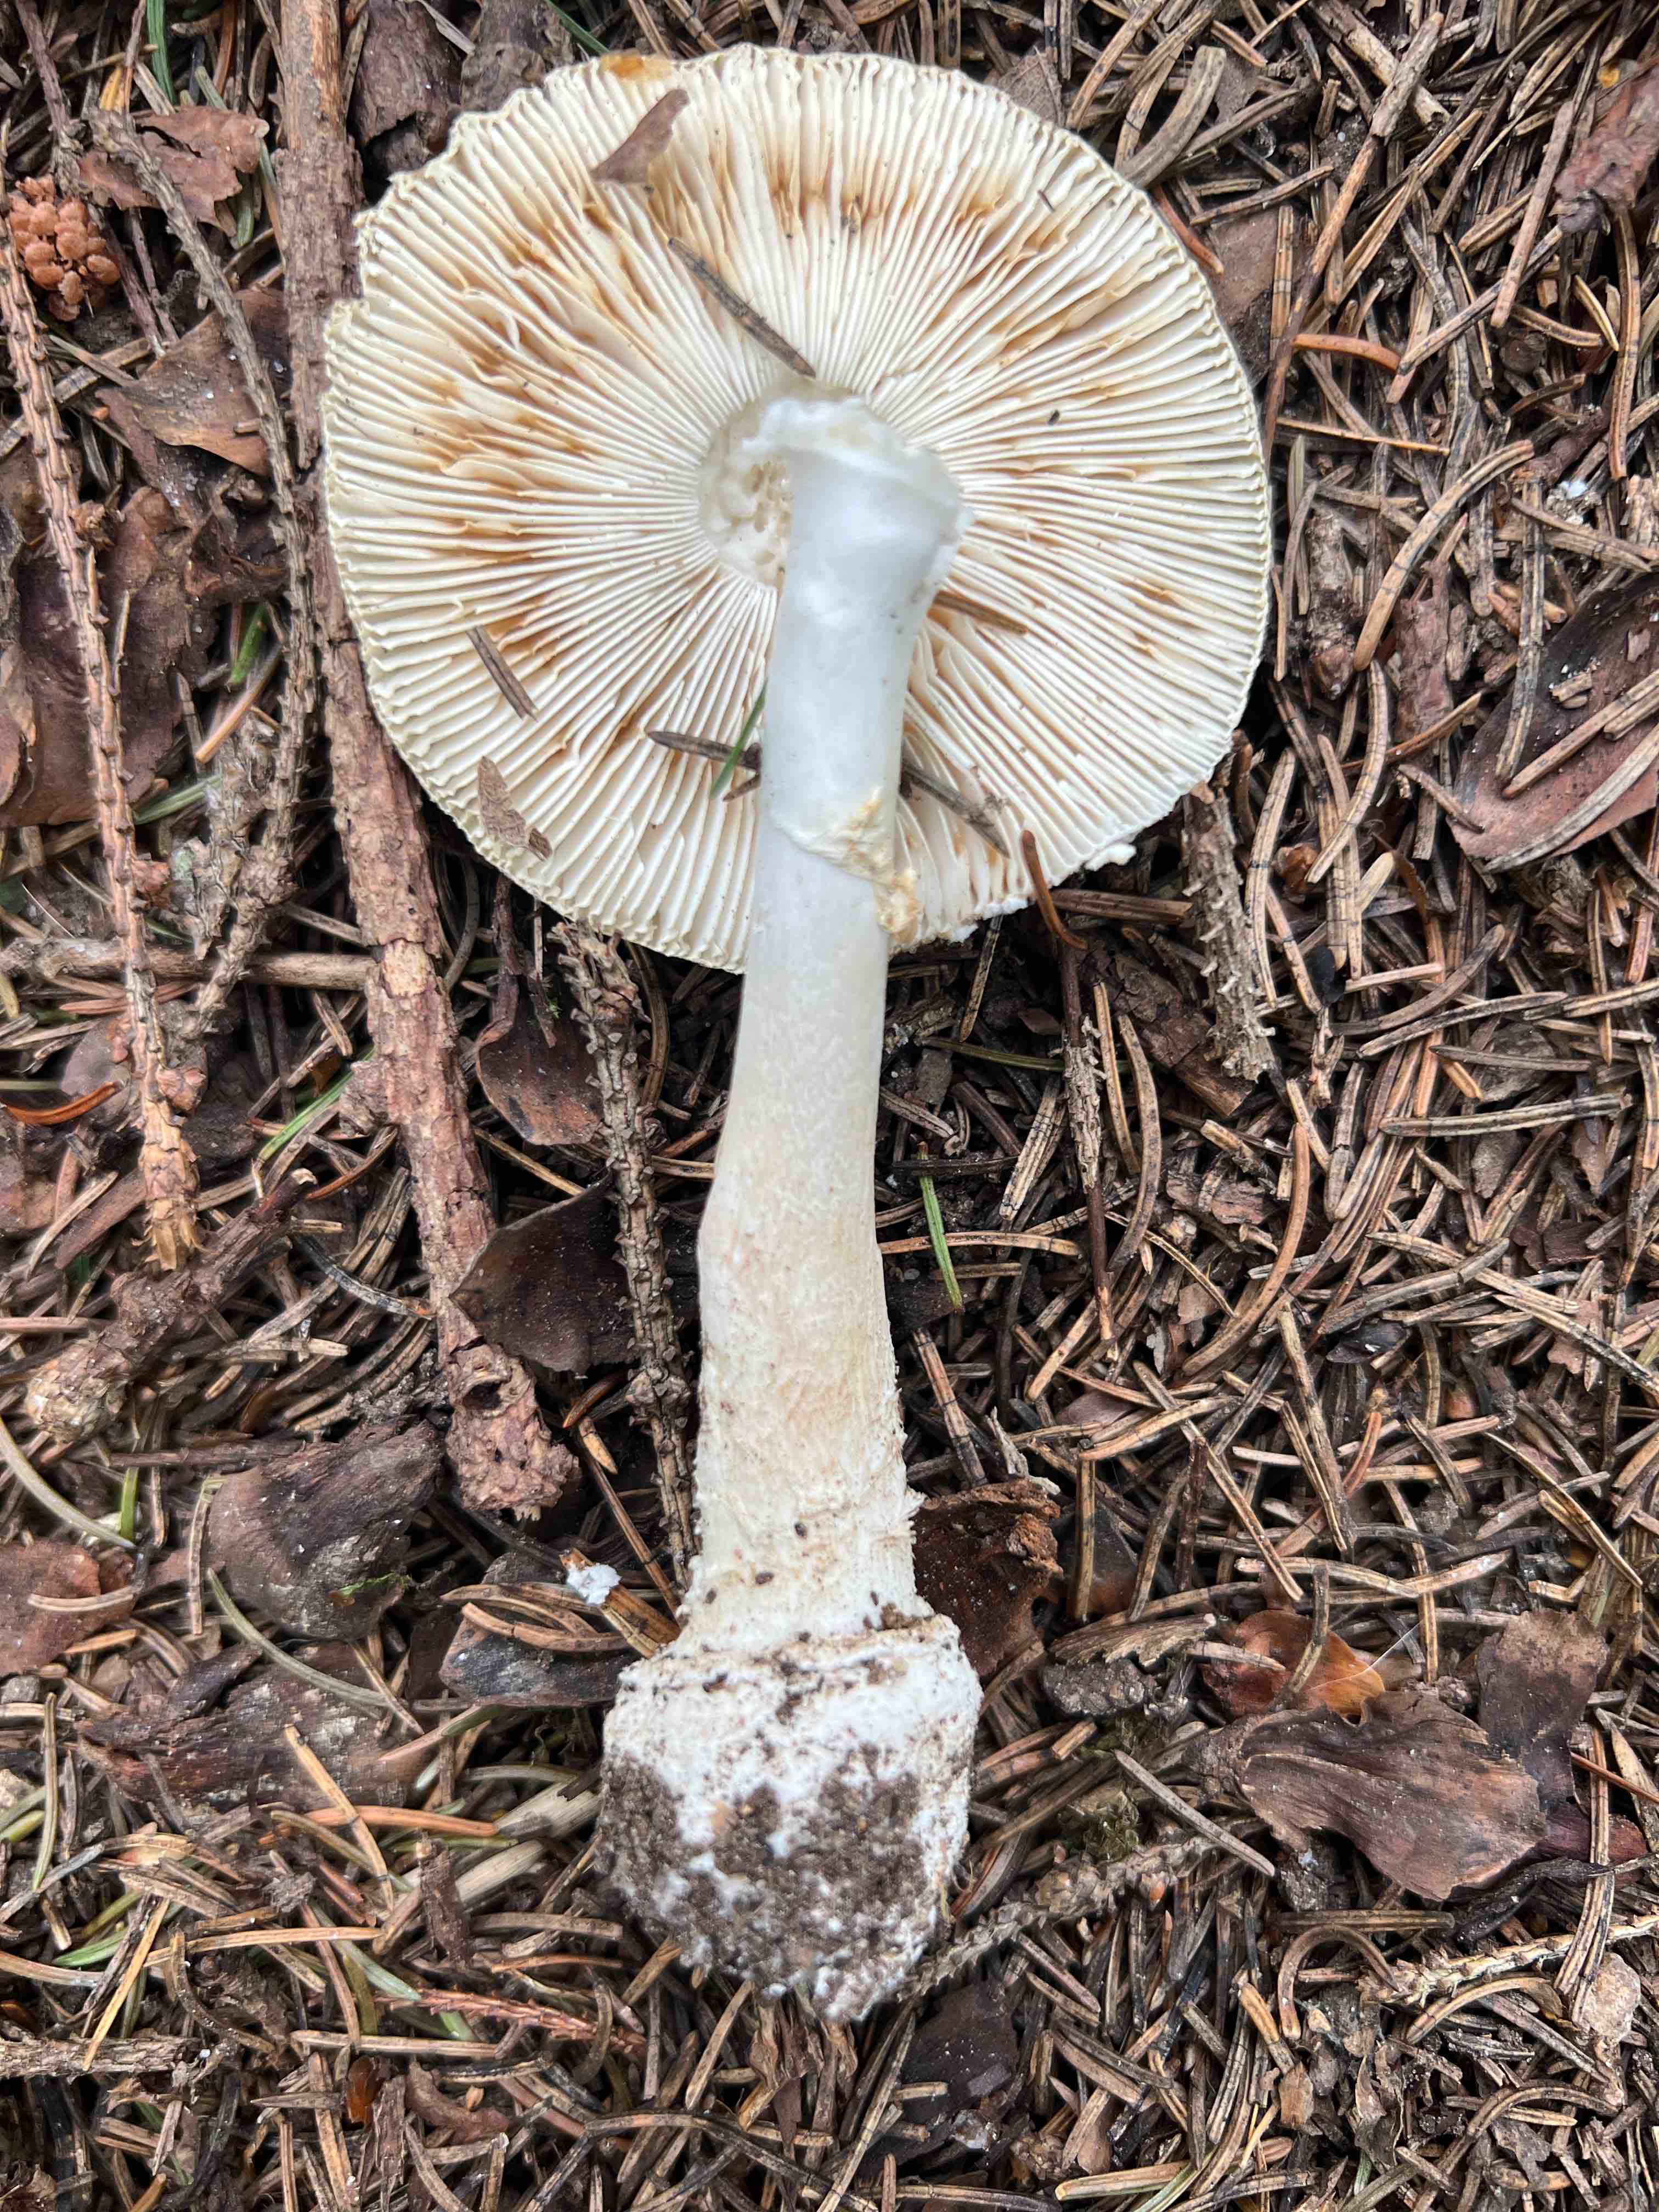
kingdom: Fungi
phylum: Basidiomycota
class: Agaricomycetes
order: Agaricales
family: Amanitaceae
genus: Amanita
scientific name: Amanita pantherina
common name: panter-fluesvamp
